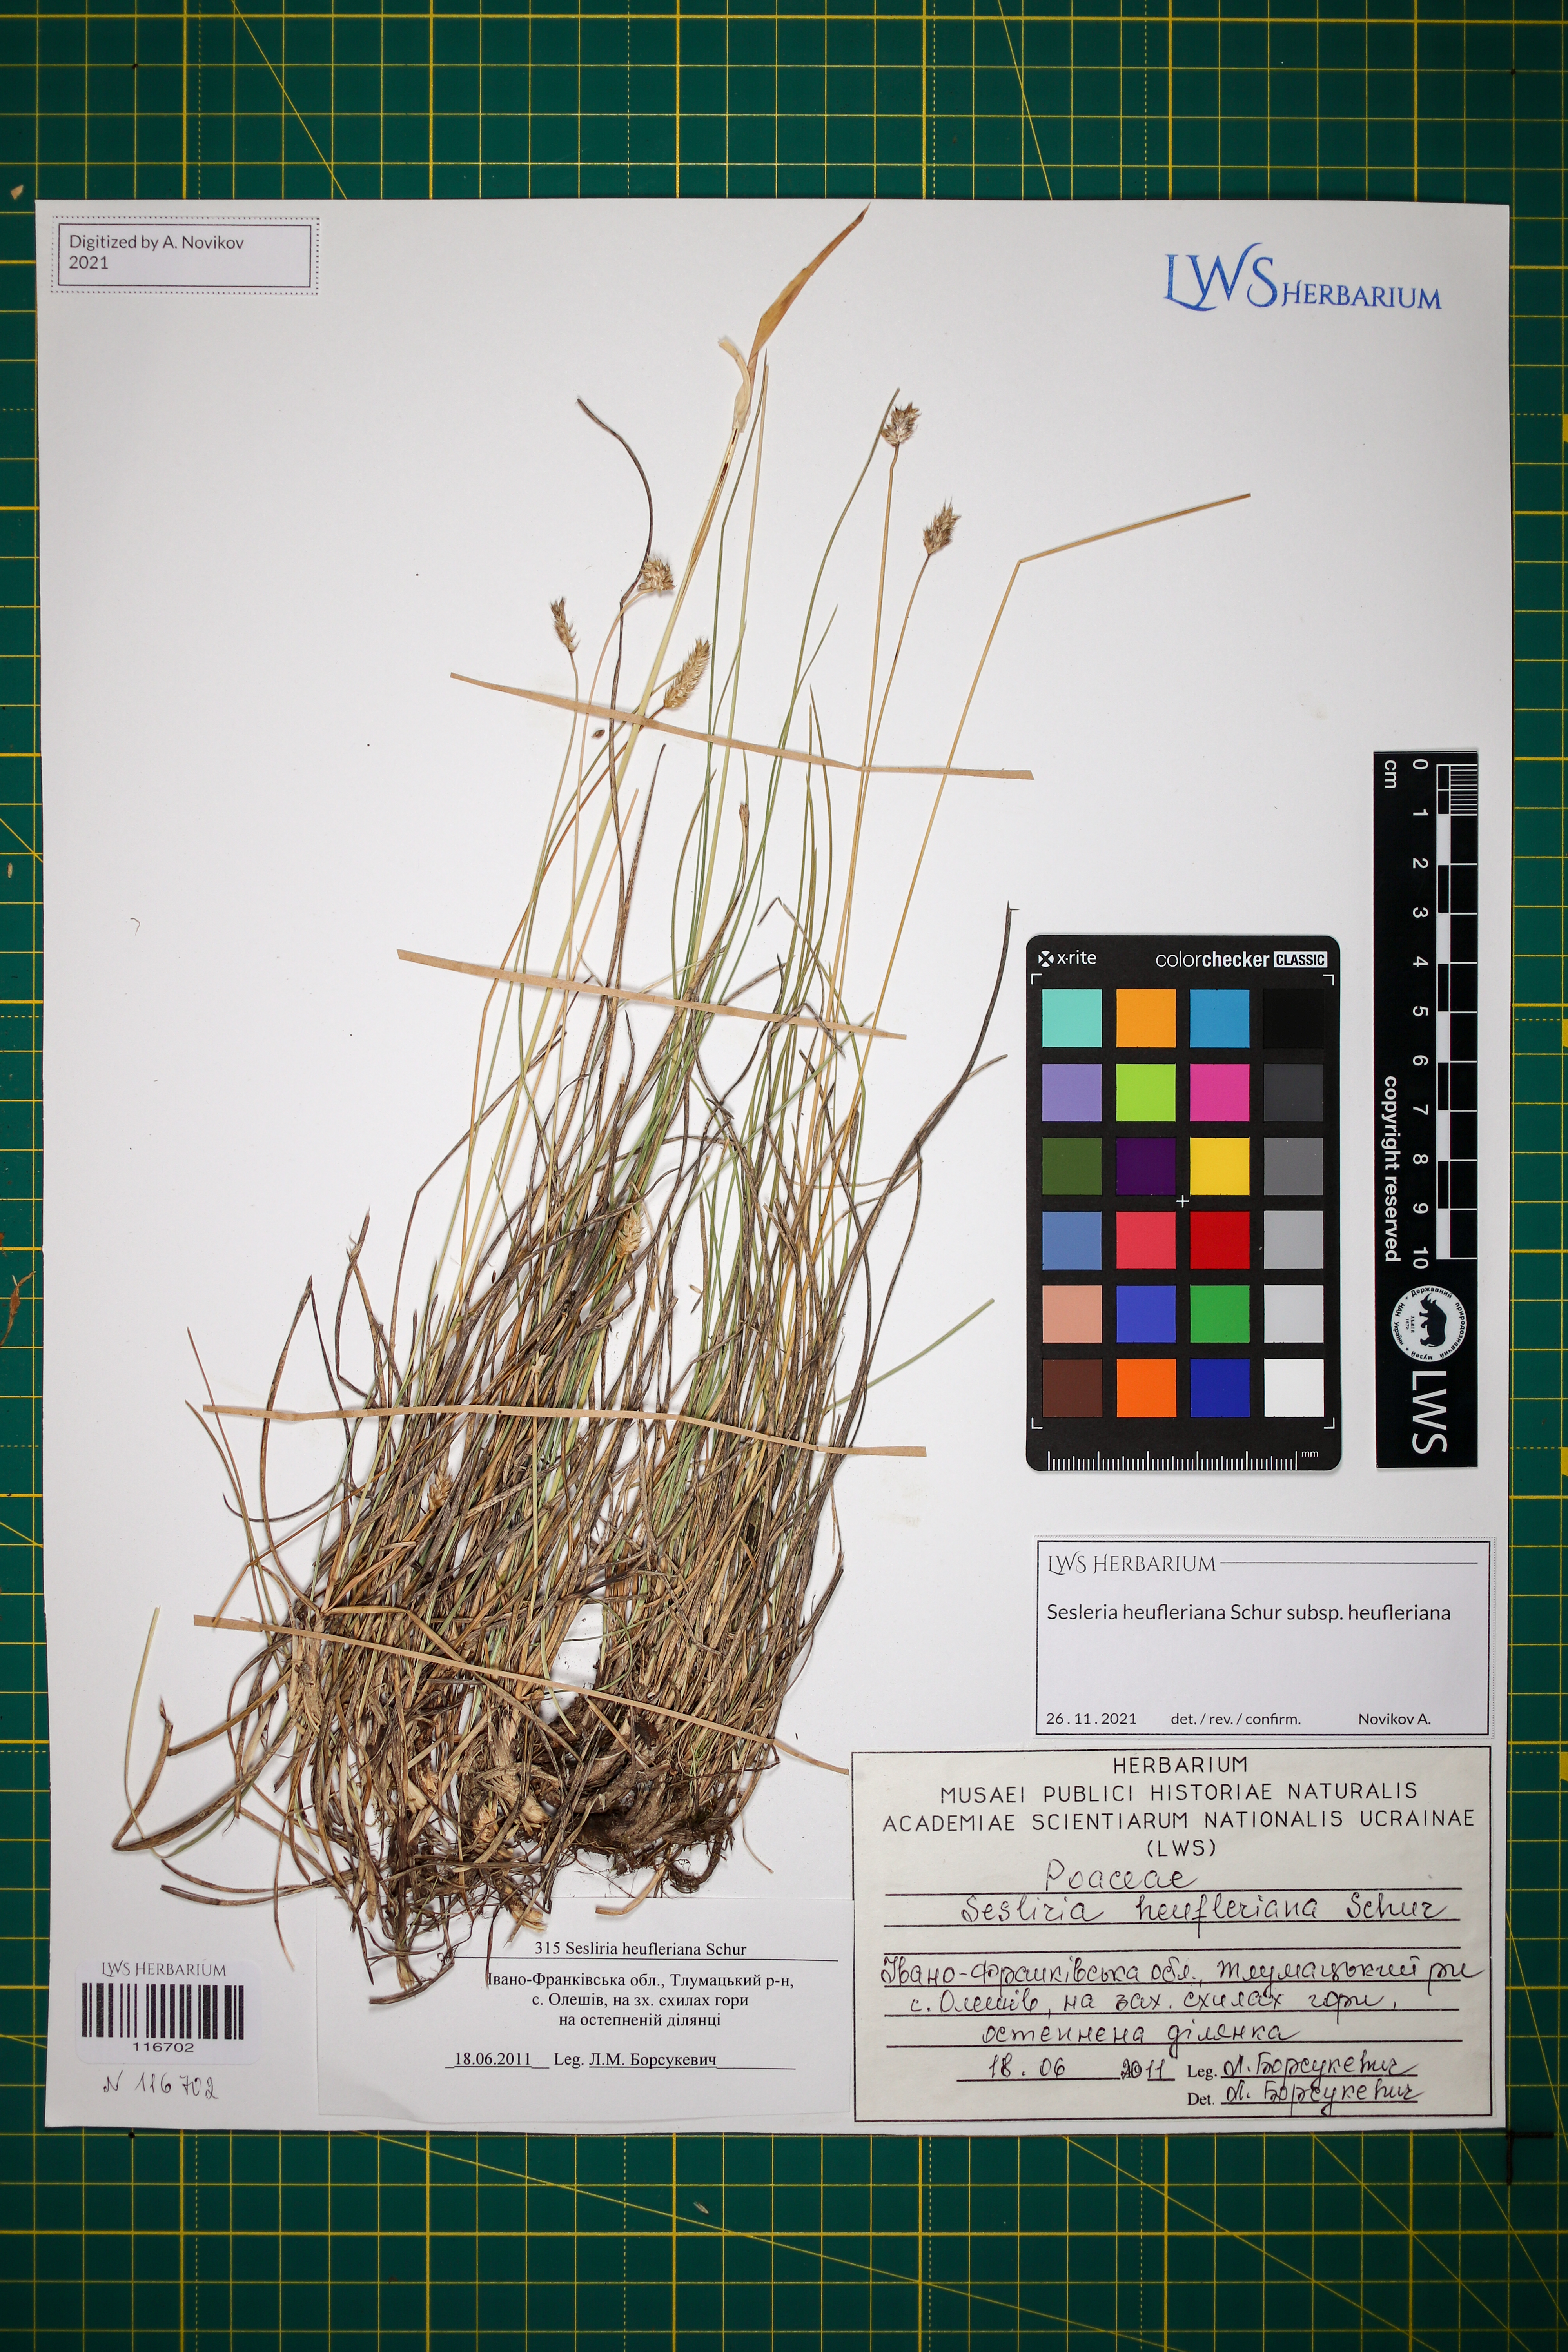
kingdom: Plantae
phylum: Tracheophyta
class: Liliopsida
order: Poales
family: Poaceae
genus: Sesleria
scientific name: Sesleria heufleriana
